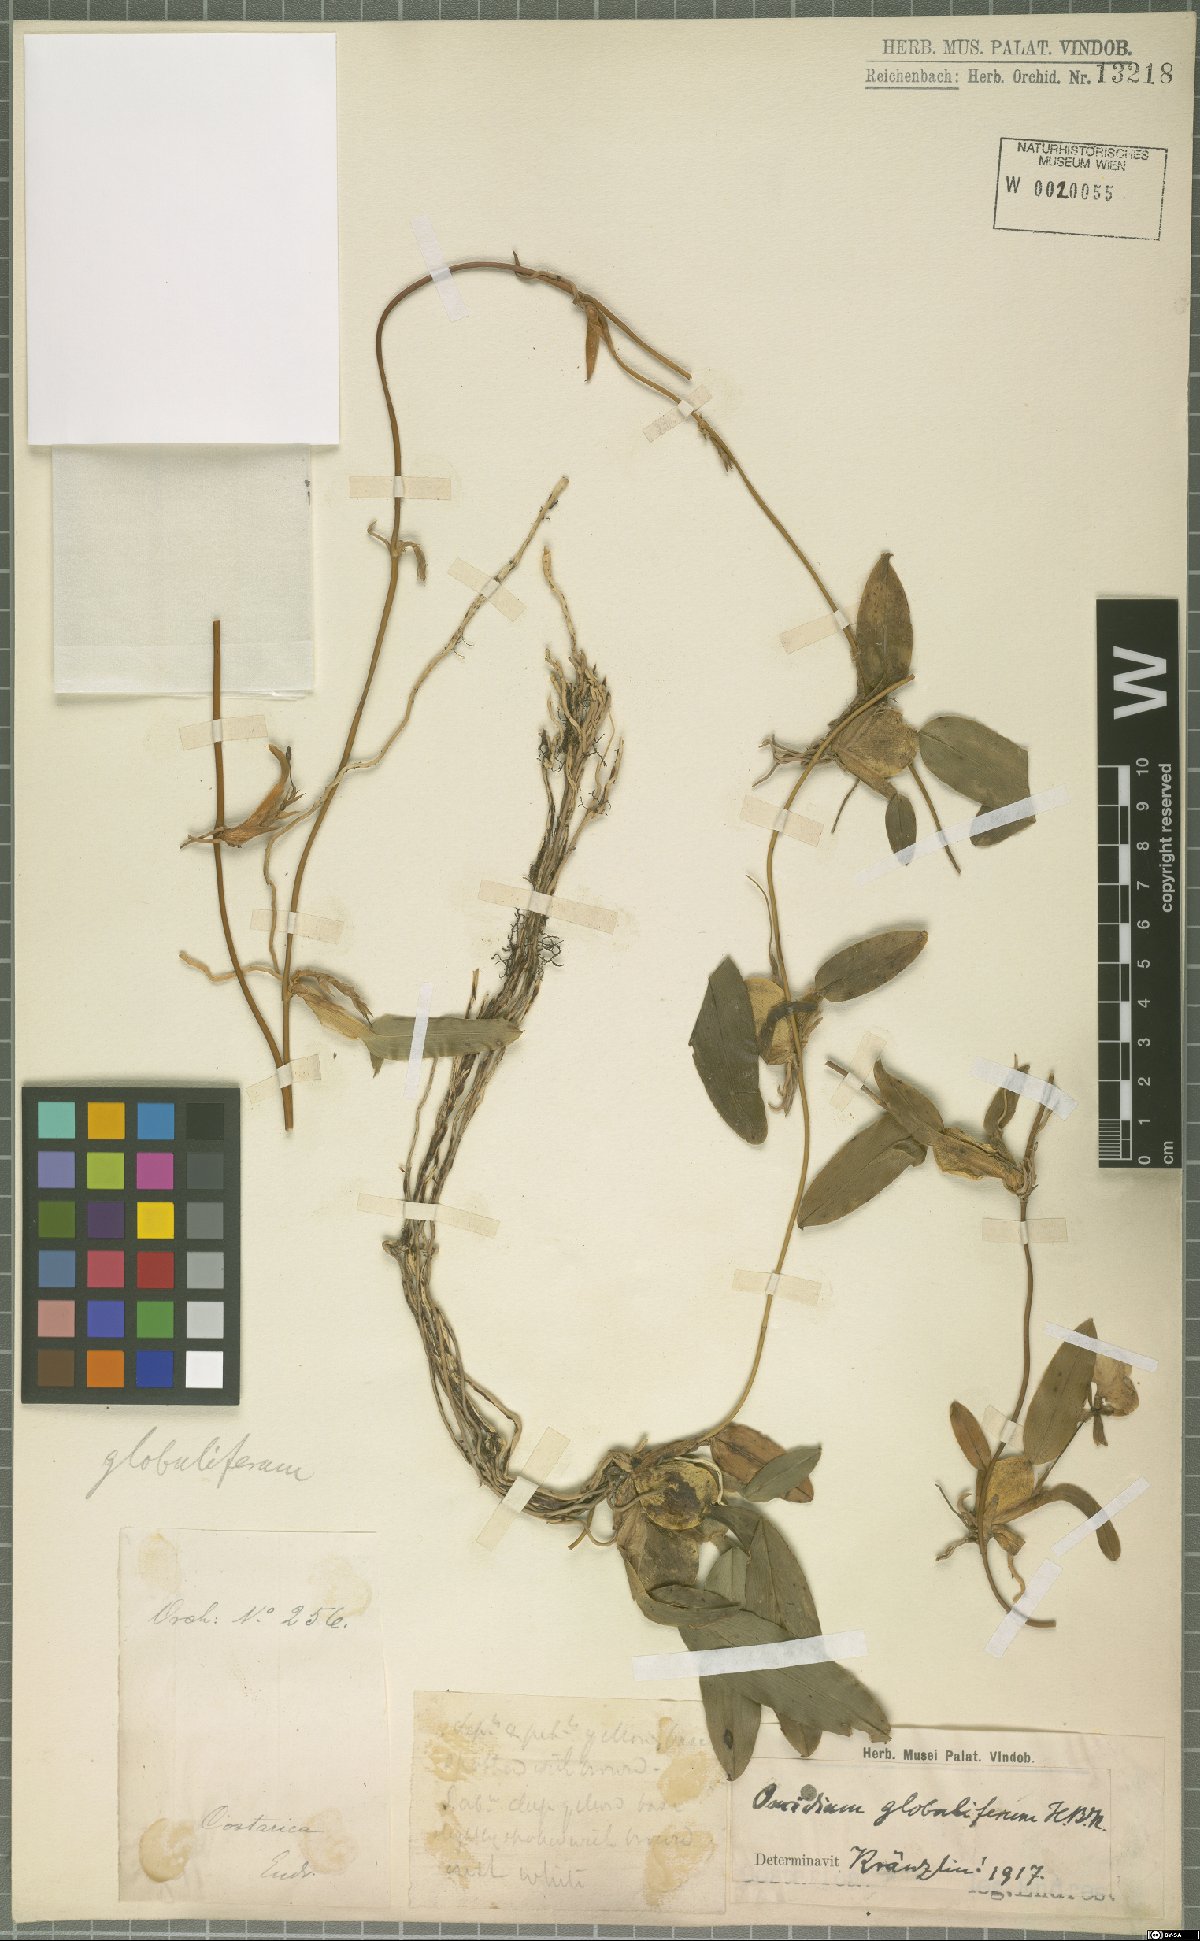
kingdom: Plantae
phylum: Tracheophyta
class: Liliopsida
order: Asparagales
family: Orchidaceae
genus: Otoglossum
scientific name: Otoglossum globuliferum
